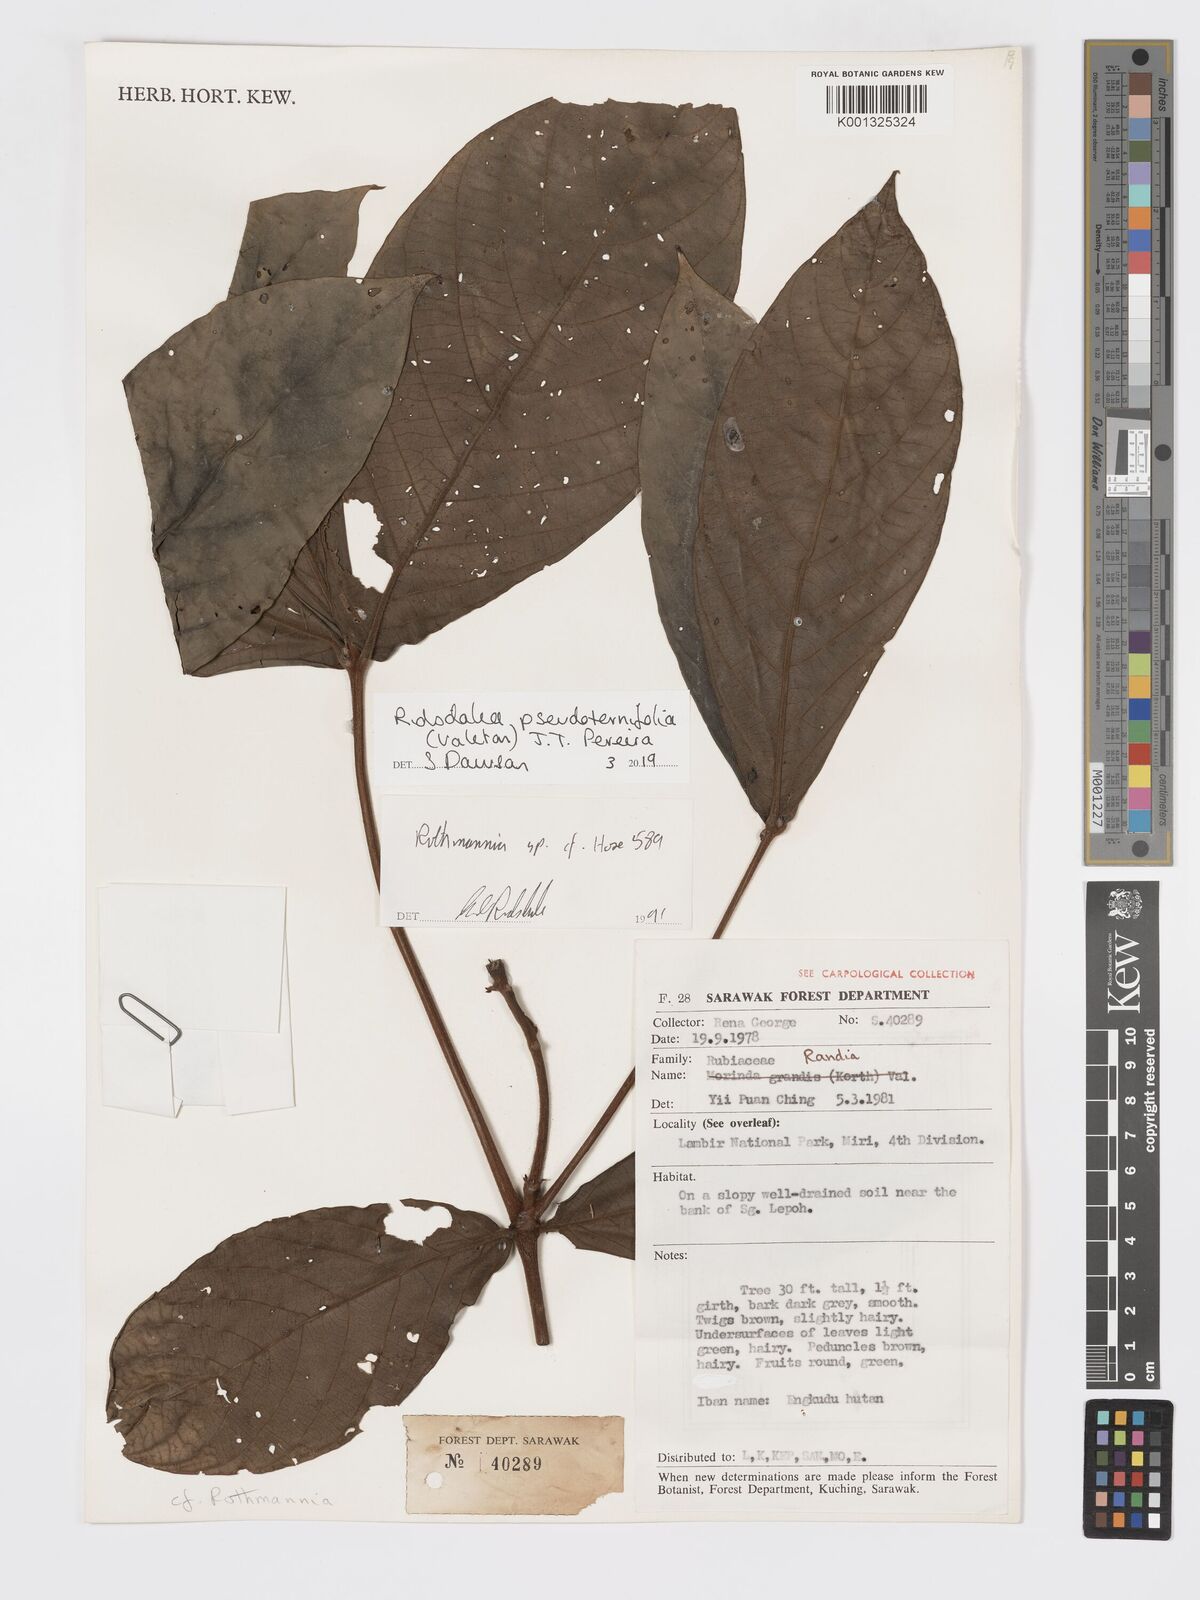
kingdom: Plantae
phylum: Tracheophyta
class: Magnoliopsida
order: Gentianales
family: Rubiaceae
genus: Ridsdalea
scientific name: Ridsdalea pseudoternifolia
